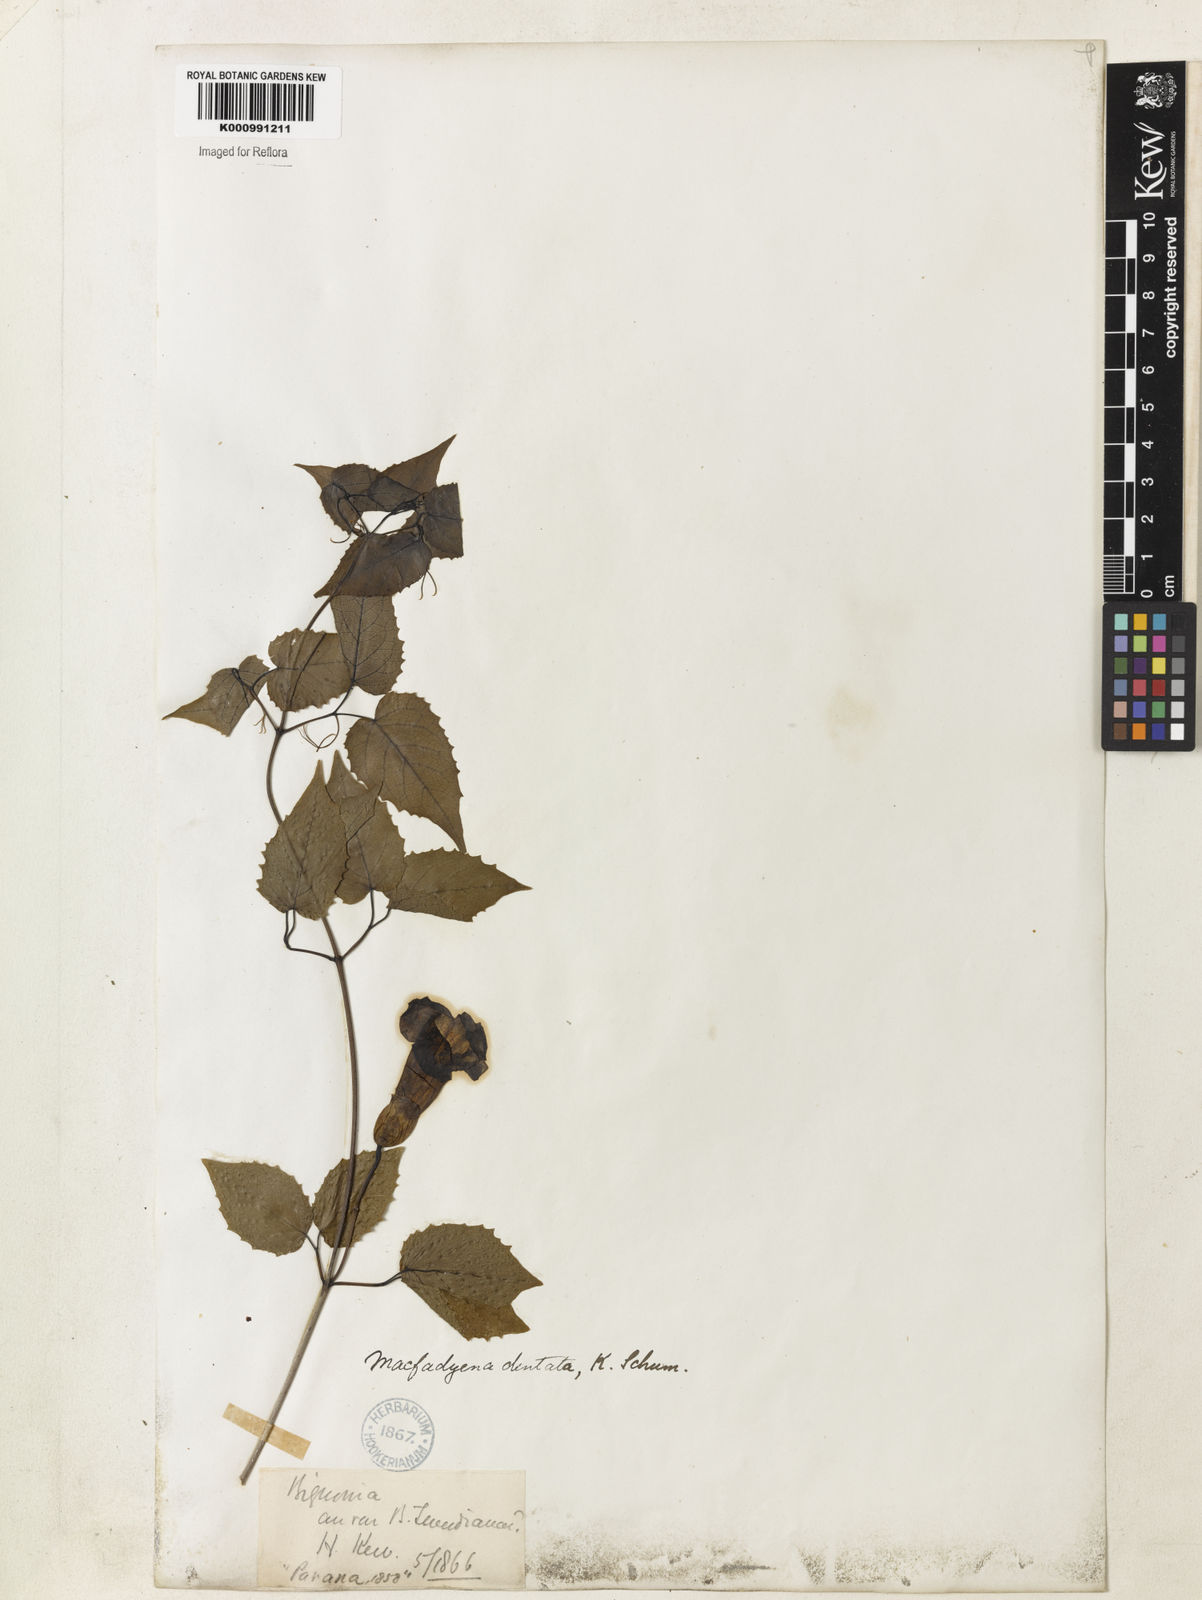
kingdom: Plantae
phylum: Tracheophyta
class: Magnoliopsida
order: Lamiales
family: Bignoniaceae
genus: Dolichandra
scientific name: Dolichandra dentata
